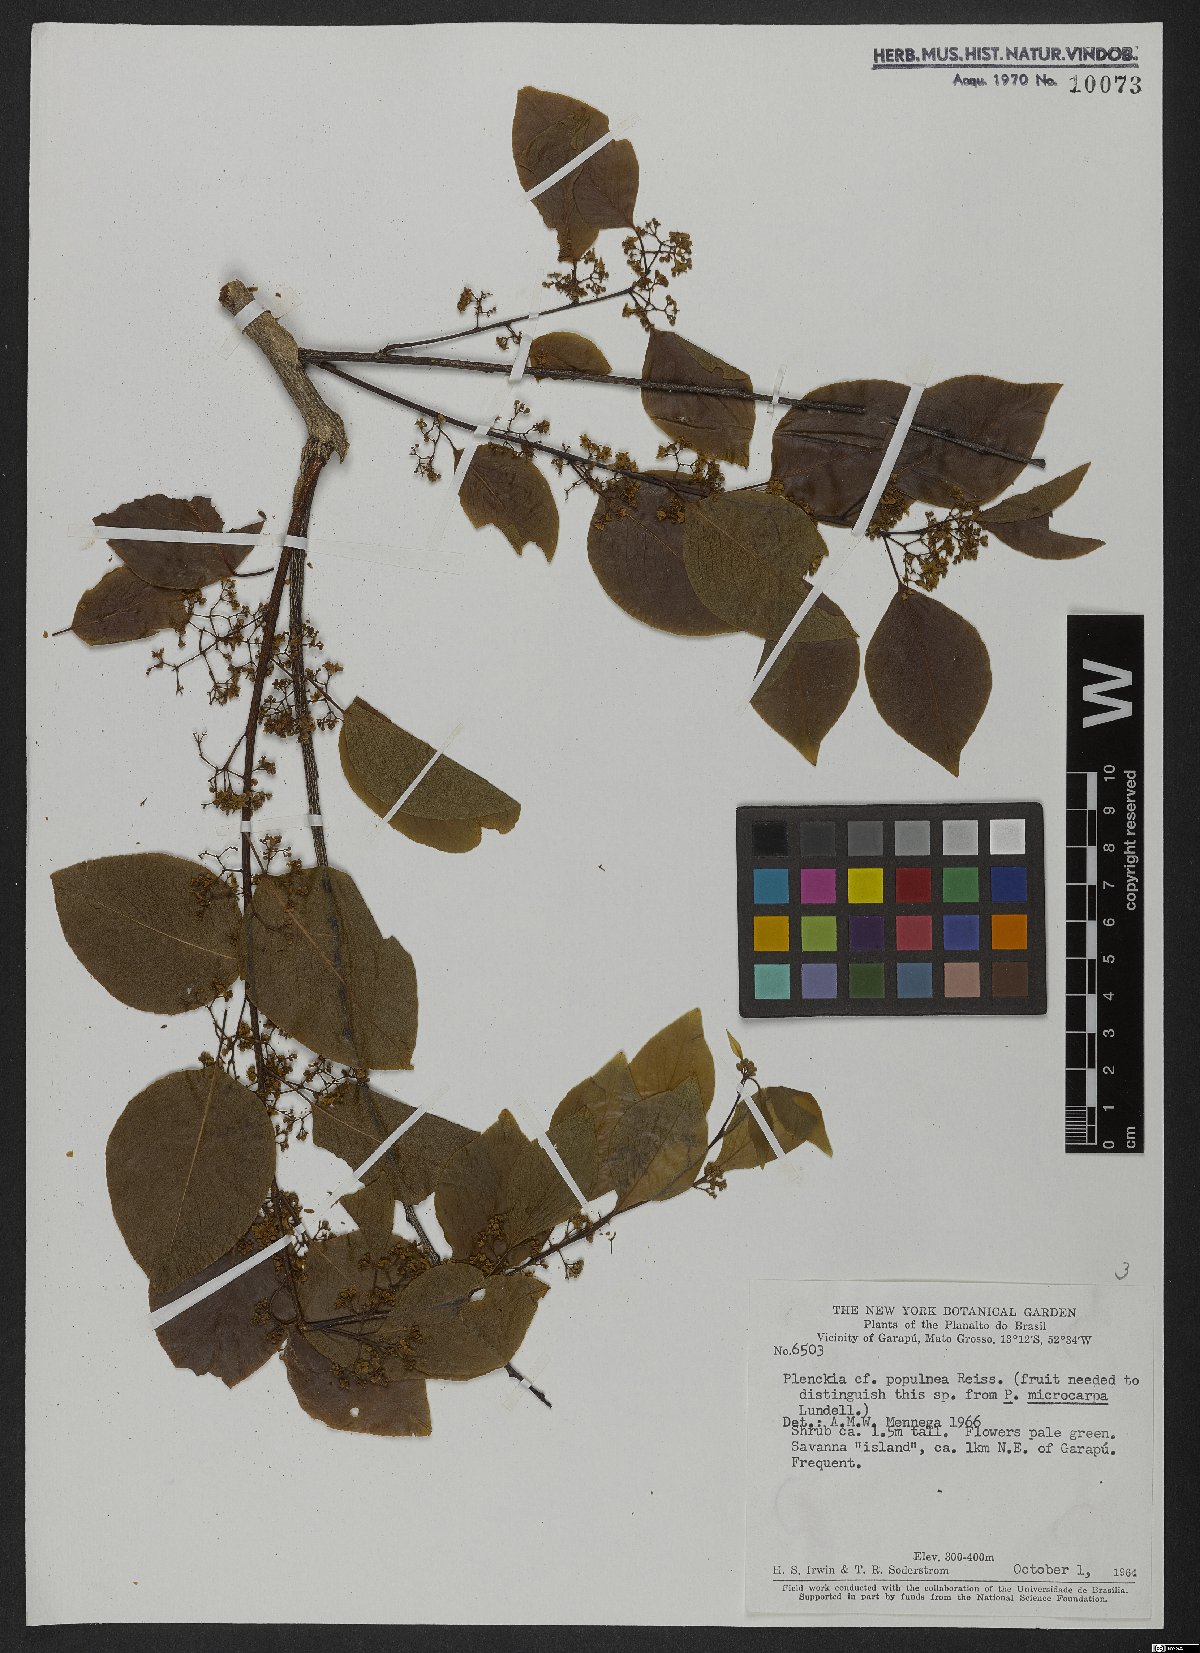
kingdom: Plantae
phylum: Tracheophyta
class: Magnoliopsida
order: Celastrales
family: Celastraceae
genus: Plenckia
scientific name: Plenckia populnea
